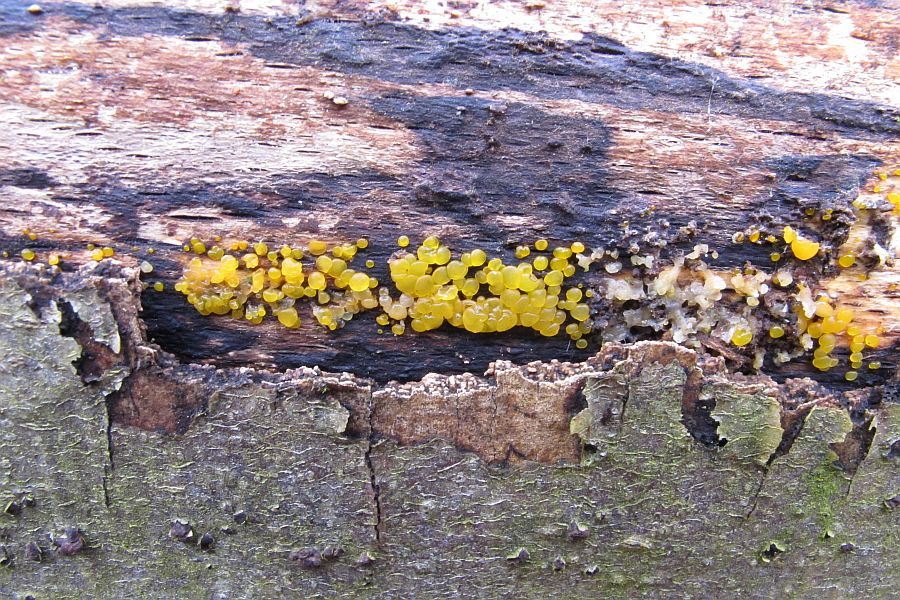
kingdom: Fungi
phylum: Basidiomycota
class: Dacrymycetes
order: Dacrymycetales
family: Dacrymycetaceae
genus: Dacrymyces
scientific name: Dacrymyces lacrymalis
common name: rynket tåresvamp
